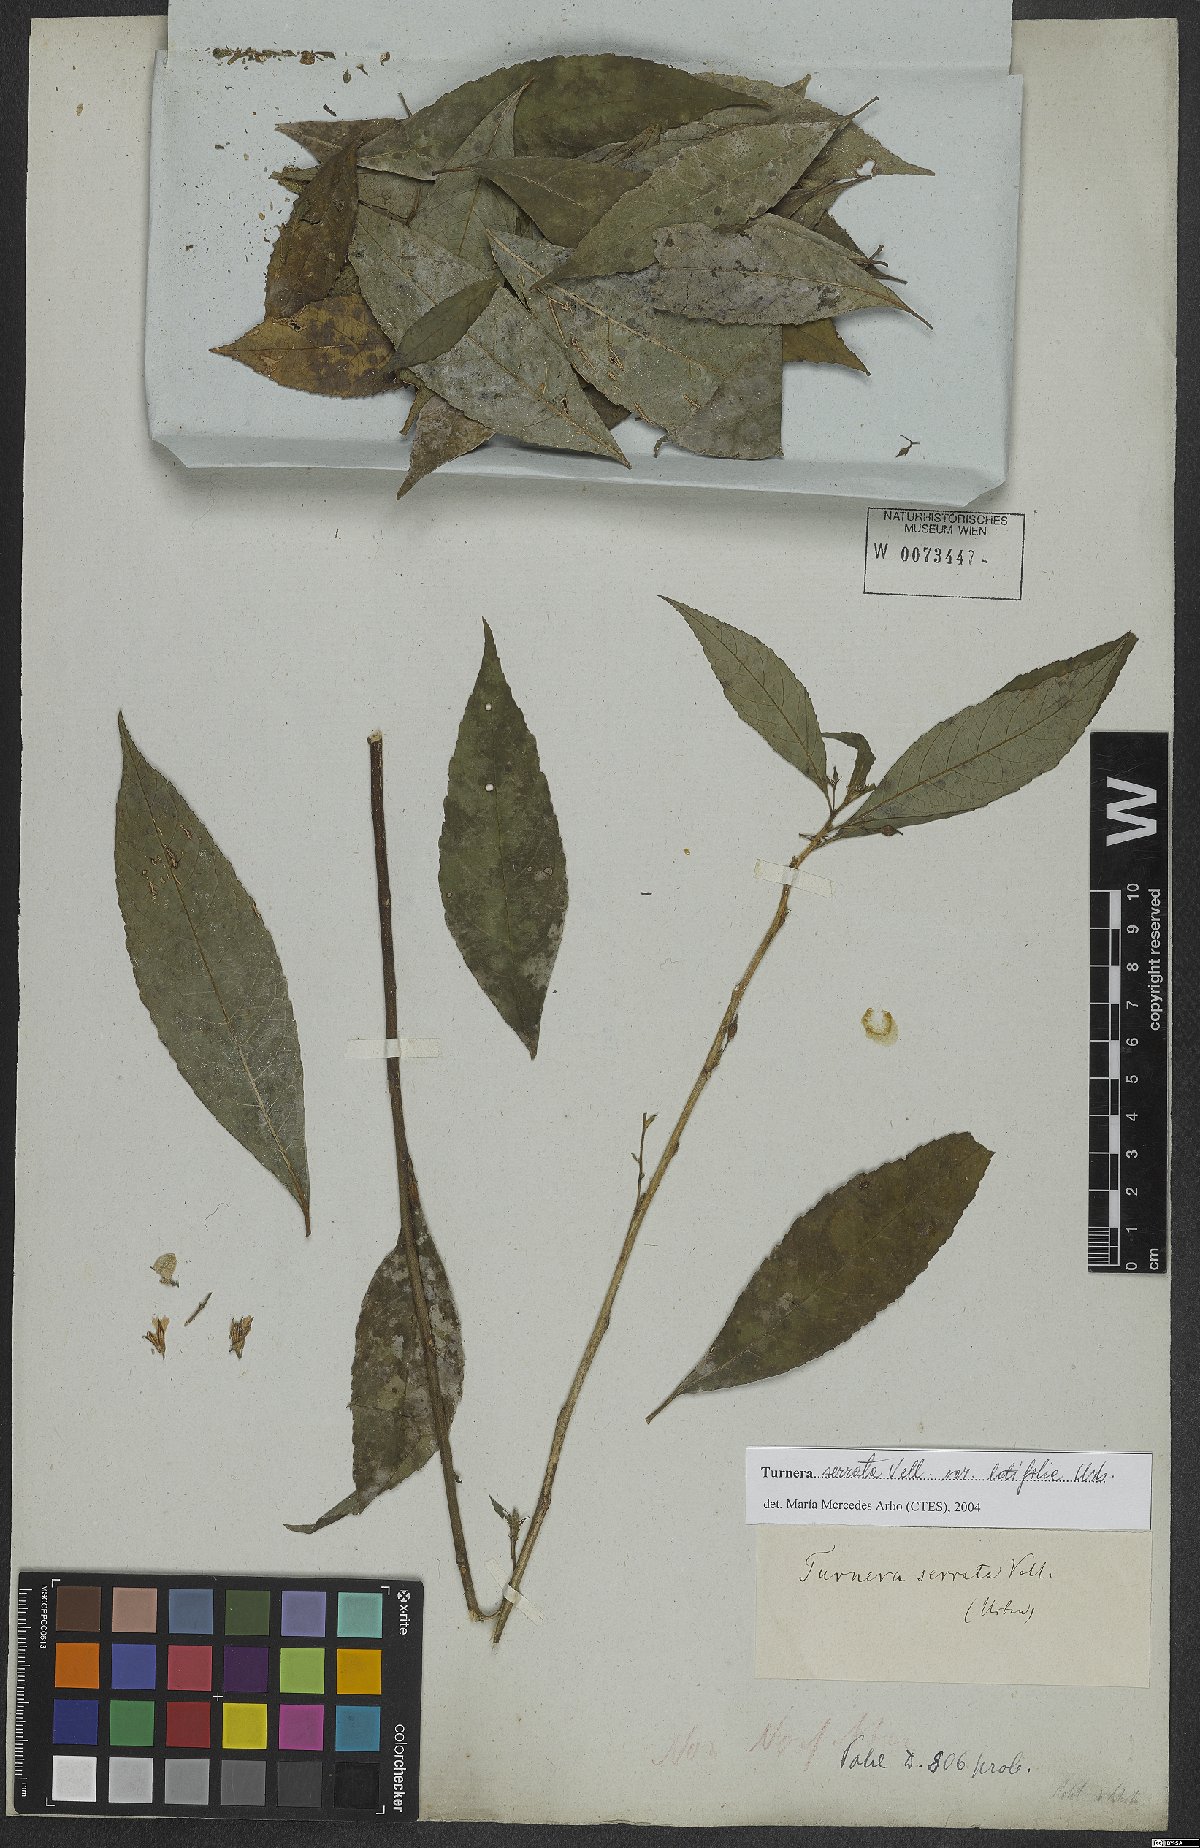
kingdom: Plantae
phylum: Tracheophyta
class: Magnoliopsida
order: Malpighiales
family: Turneraceae
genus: Turnera
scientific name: Turnera serrata
